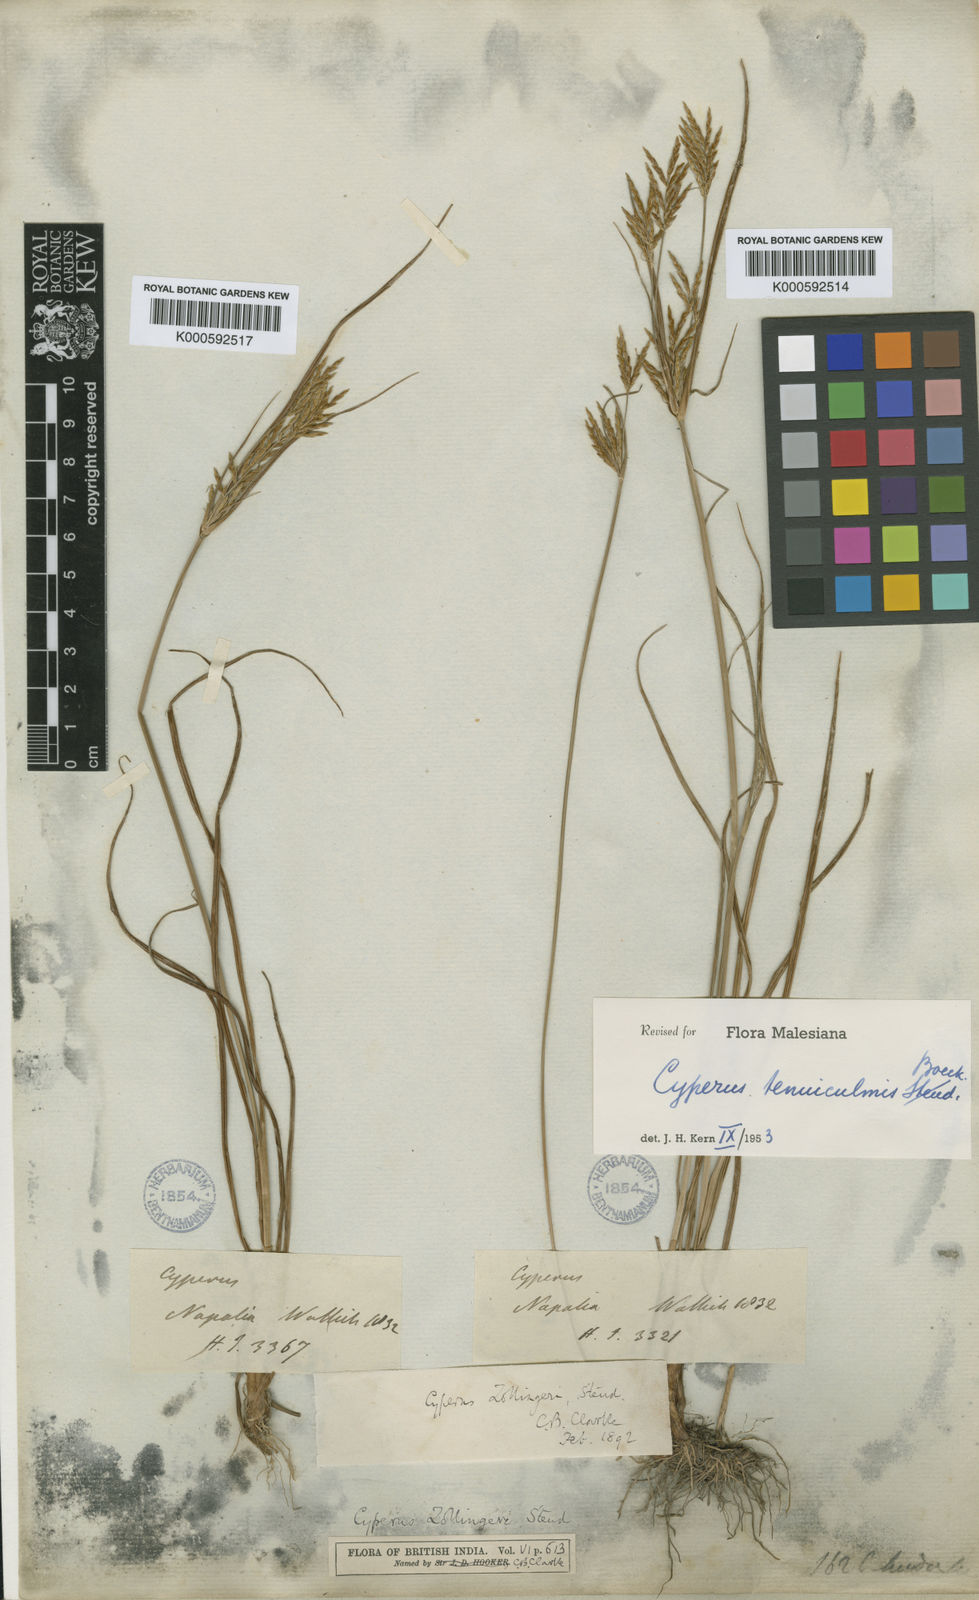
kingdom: Plantae
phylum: Tracheophyta
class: Liliopsida
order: Poales
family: Cyperaceae
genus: Cyperus
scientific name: Cyperus tenuiculmis
